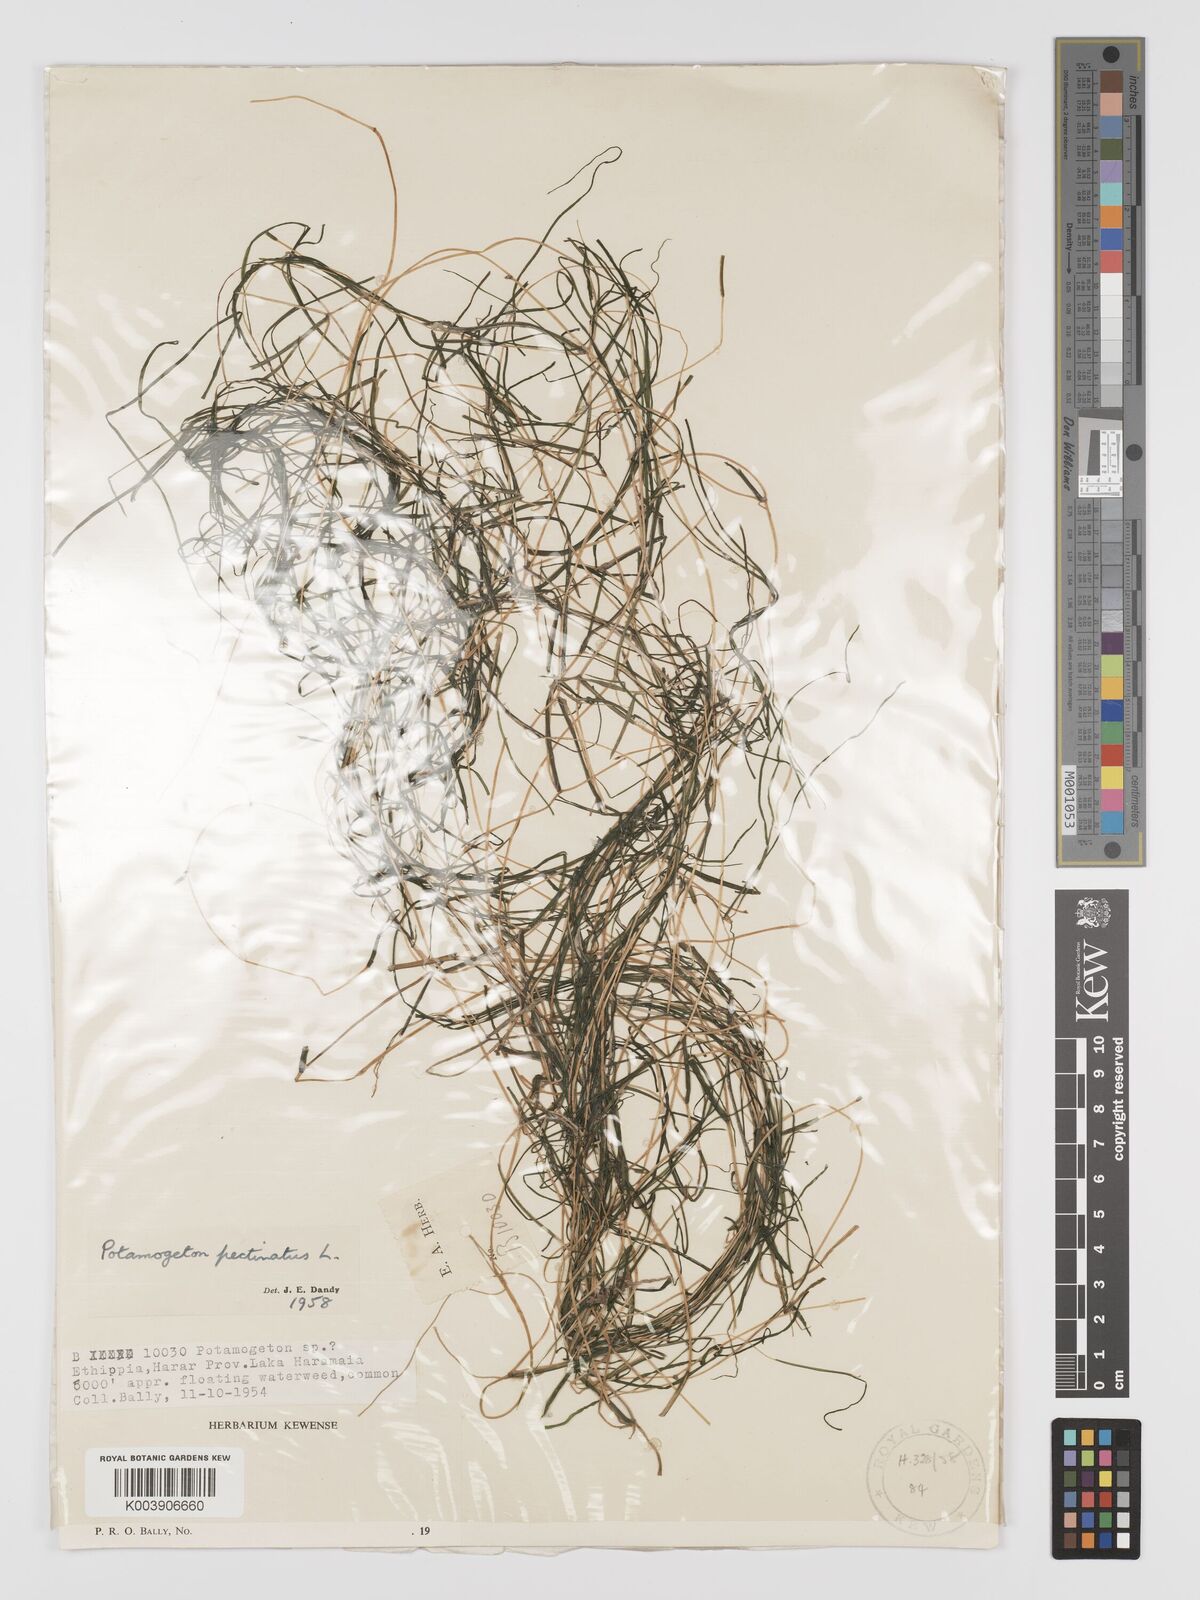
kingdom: Plantae
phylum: Tracheophyta
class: Liliopsida
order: Alismatales
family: Potamogetonaceae
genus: Stuckenia
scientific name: Stuckenia pectinata
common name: Sago pondweed
